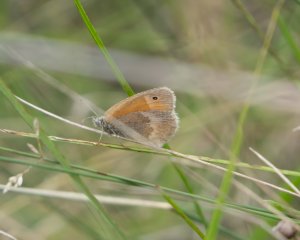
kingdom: Animalia
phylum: Arthropoda
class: Insecta
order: Lepidoptera
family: Nymphalidae
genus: Coenonympha
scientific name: Coenonympha tullia
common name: Large Heath
